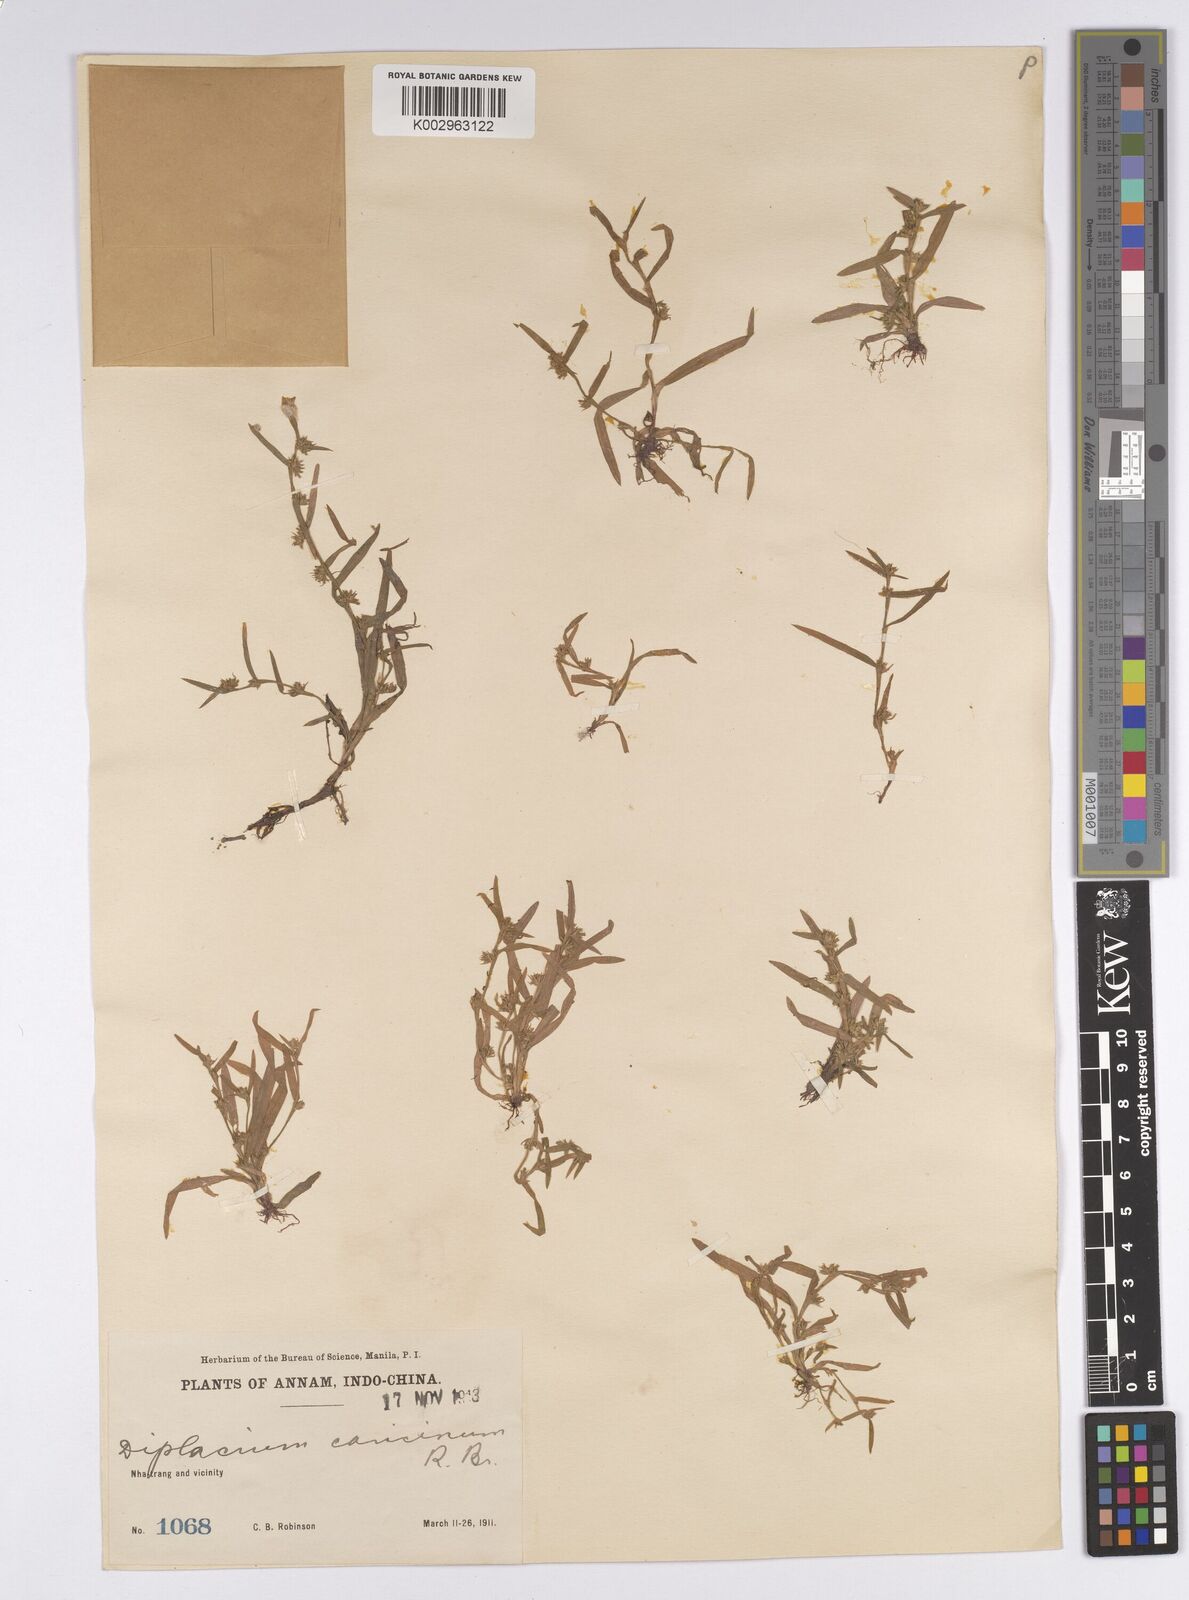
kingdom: Plantae
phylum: Tracheophyta
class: Liliopsida
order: Poales
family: Cyperaceae
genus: Diplacrum
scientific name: Diplacrum caricinum
